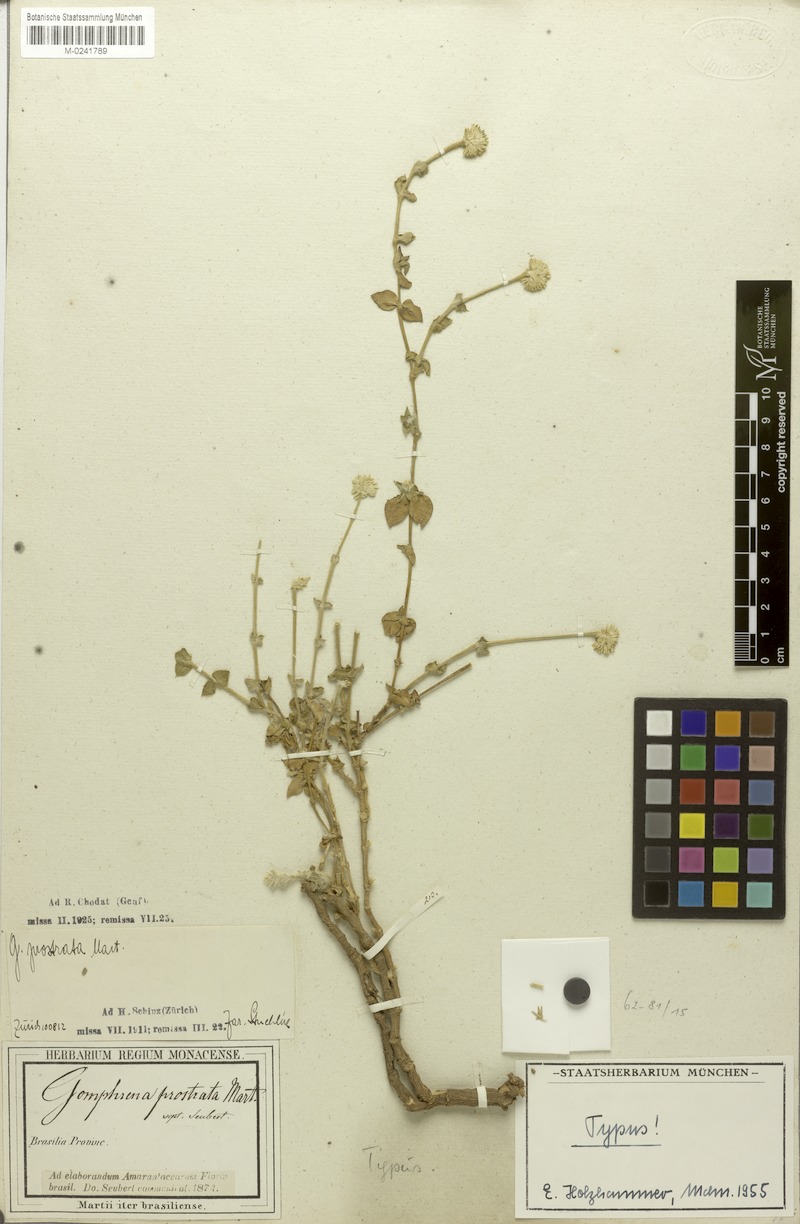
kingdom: Plantae
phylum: Tracheophyta
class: Magnoliopsida
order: Caryophyllales
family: Amaranthaceae
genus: Gomphrena
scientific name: Gomphrena prostrata
